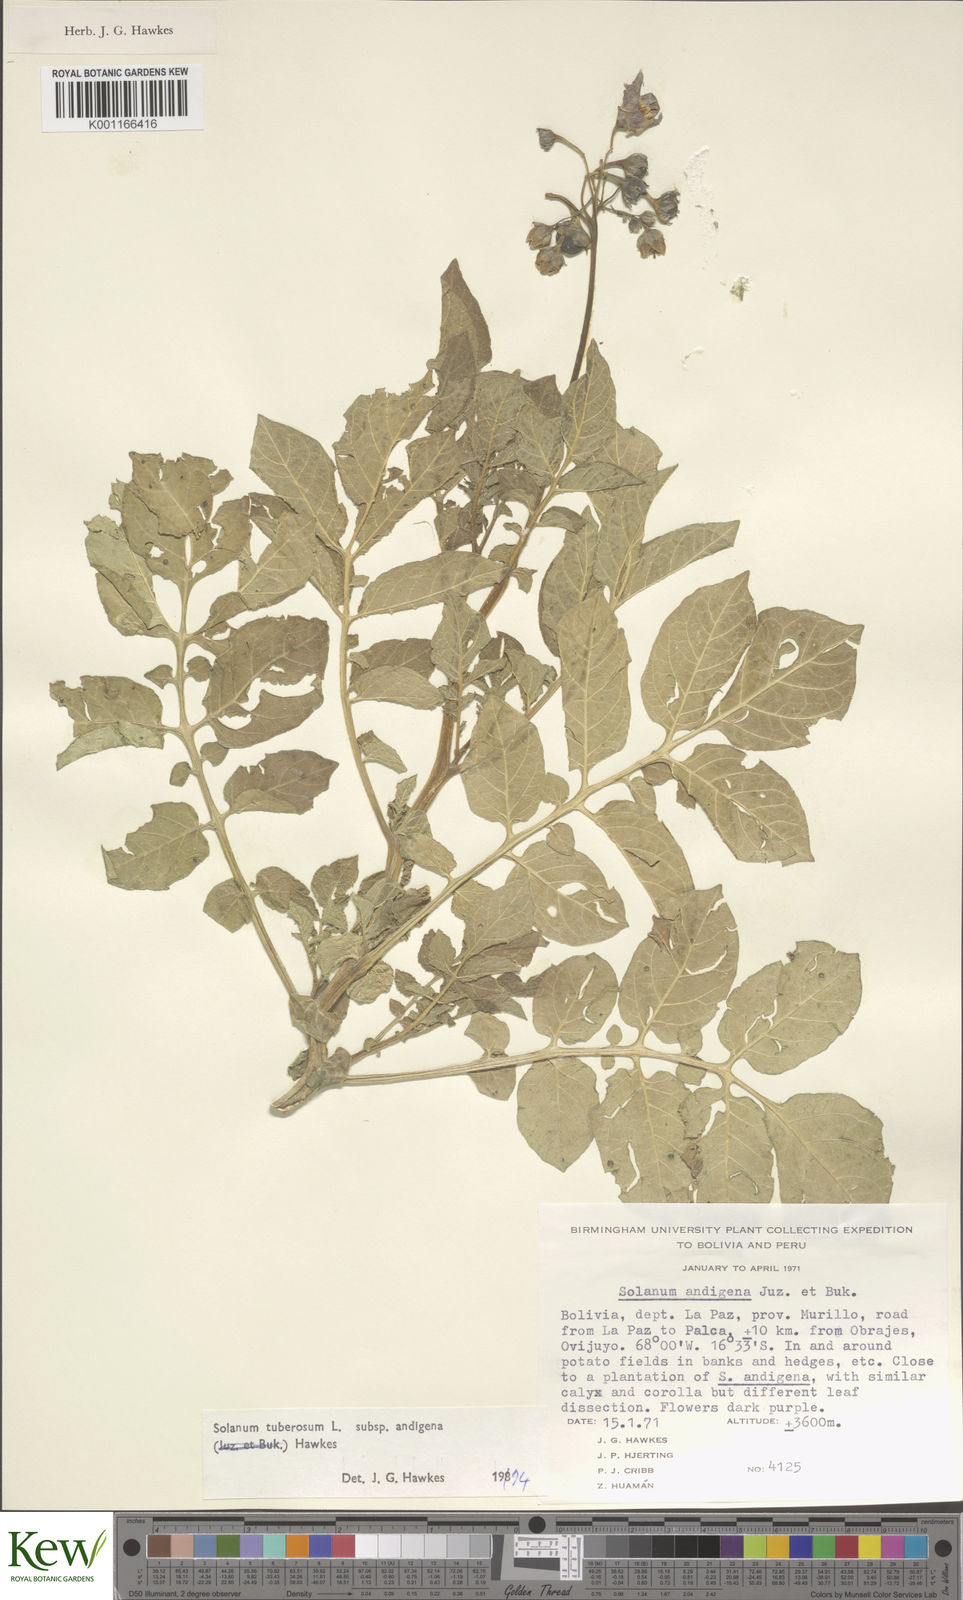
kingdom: Plantae
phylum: Tracheophyta
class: Magnoliopsida
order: Solanales
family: Solanaceae
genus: Solanum
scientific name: Solanum tuberosum
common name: Potato
